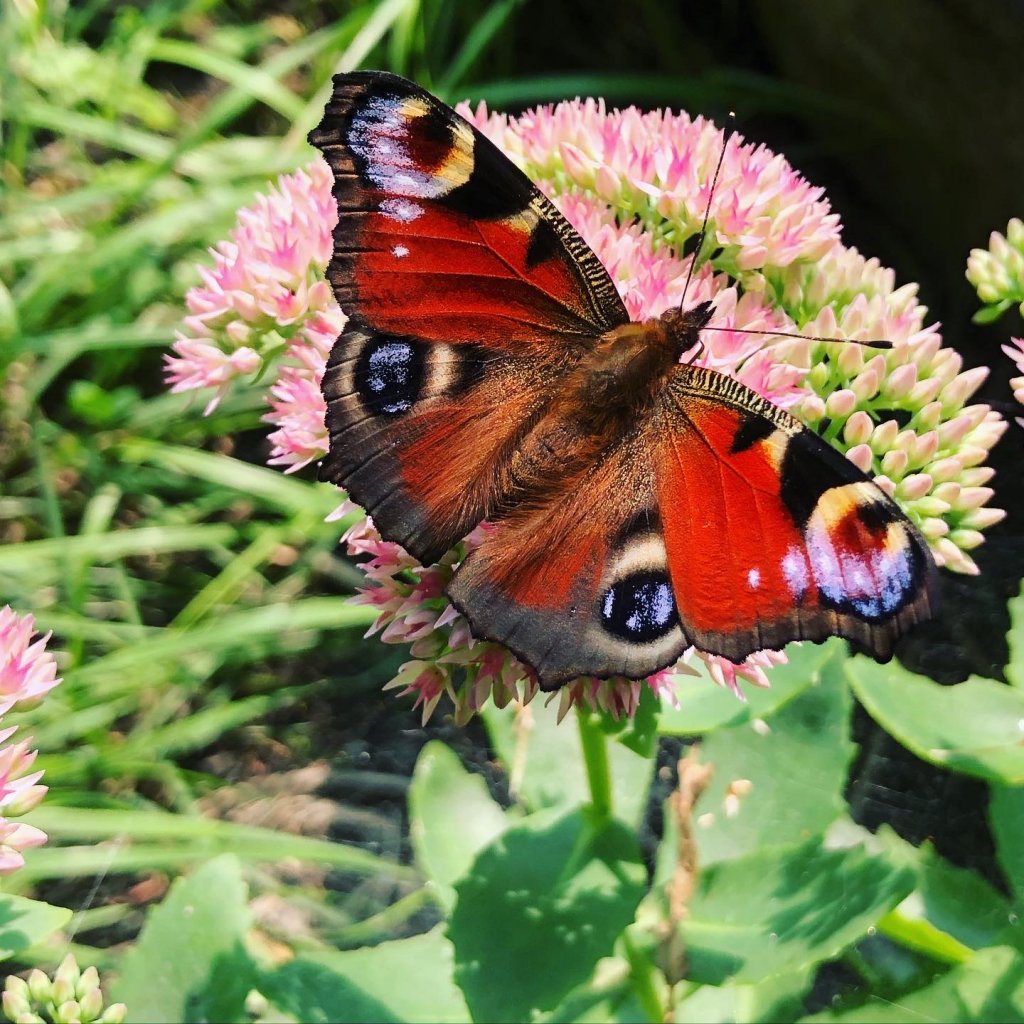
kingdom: Animalia
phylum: Arthropoda
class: Insecta
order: Lepidoptera
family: Nymphalidae
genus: Aglais
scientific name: Aglais io
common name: European Peacock
